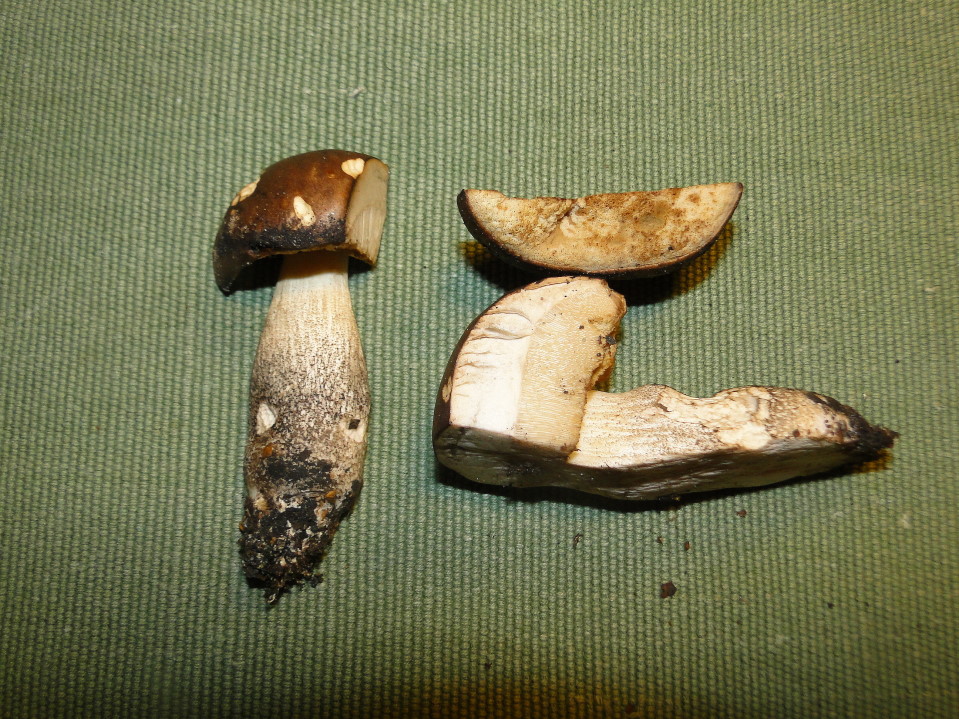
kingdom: Fungi
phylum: Basidiomycota
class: Agaricomycetes
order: Boletales
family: Boletaceae
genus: Leccinum
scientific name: Leccinum schistophilum
